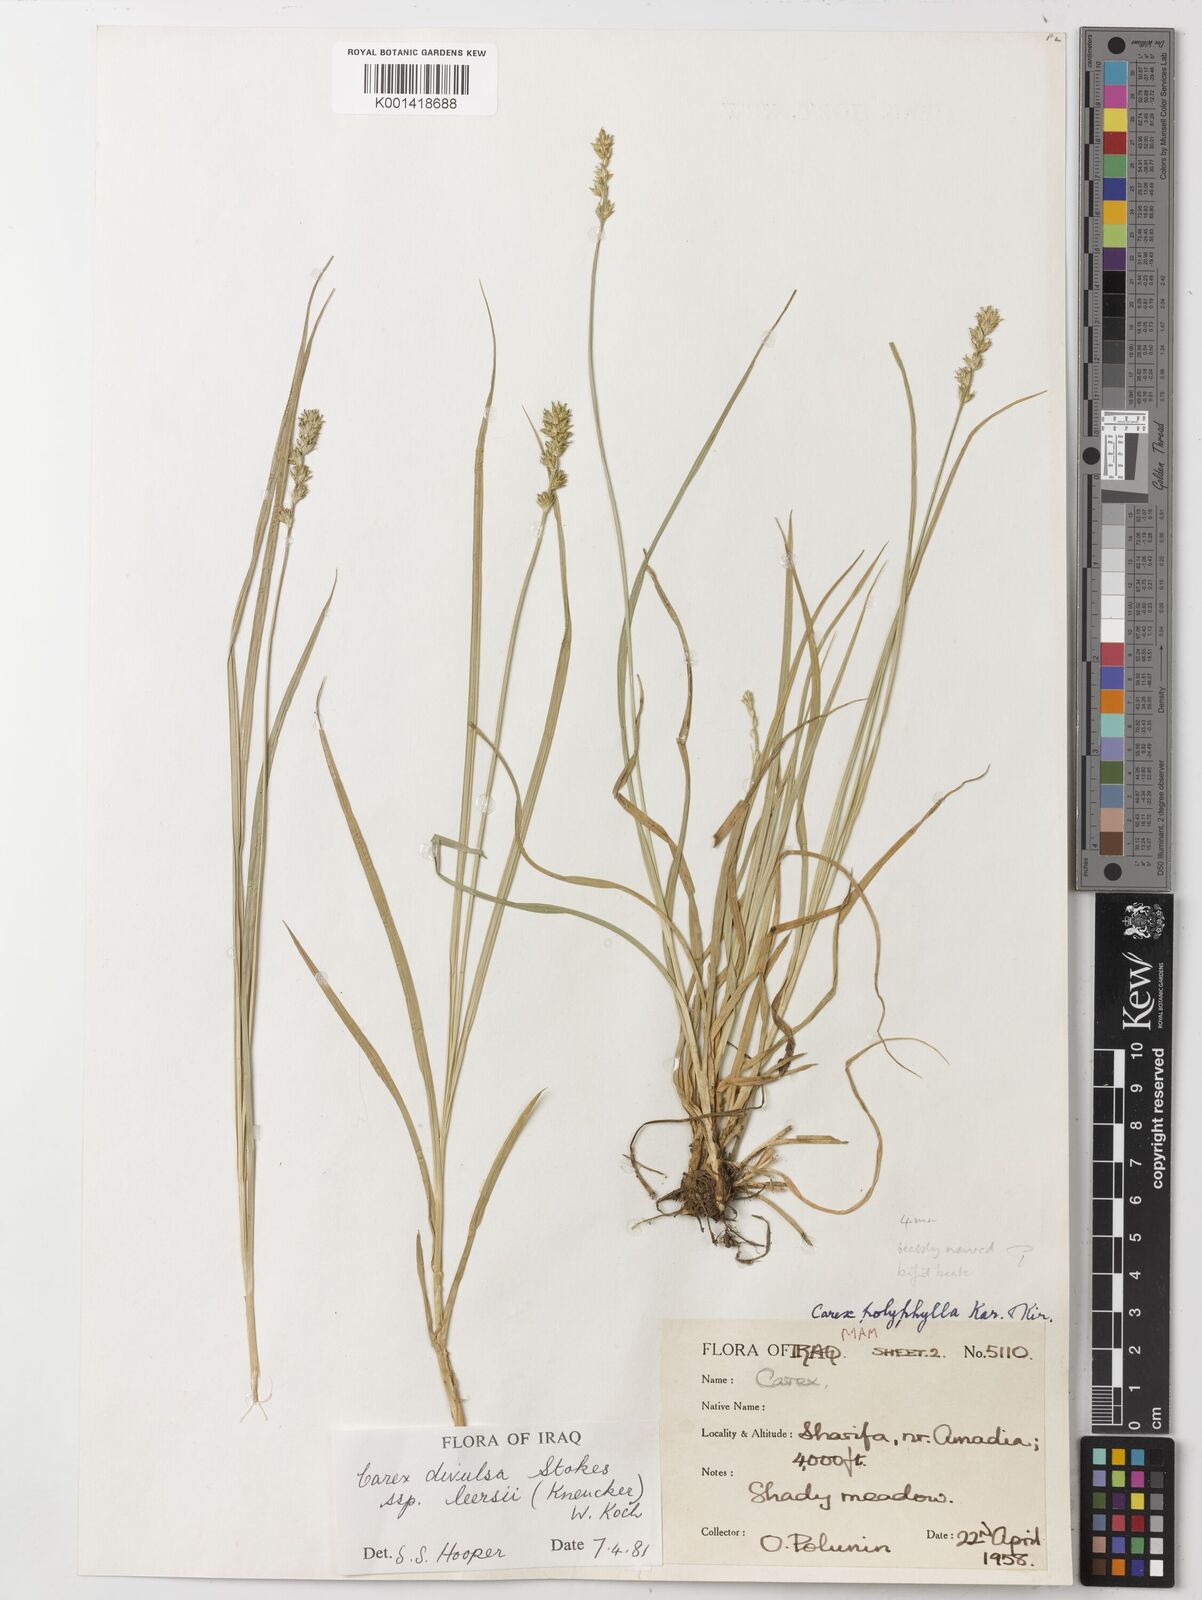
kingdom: Plantae
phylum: Tracheophyta
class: Liliopsida
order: Poales
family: Cyperaceae
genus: Carex
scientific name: Carex egorovae
